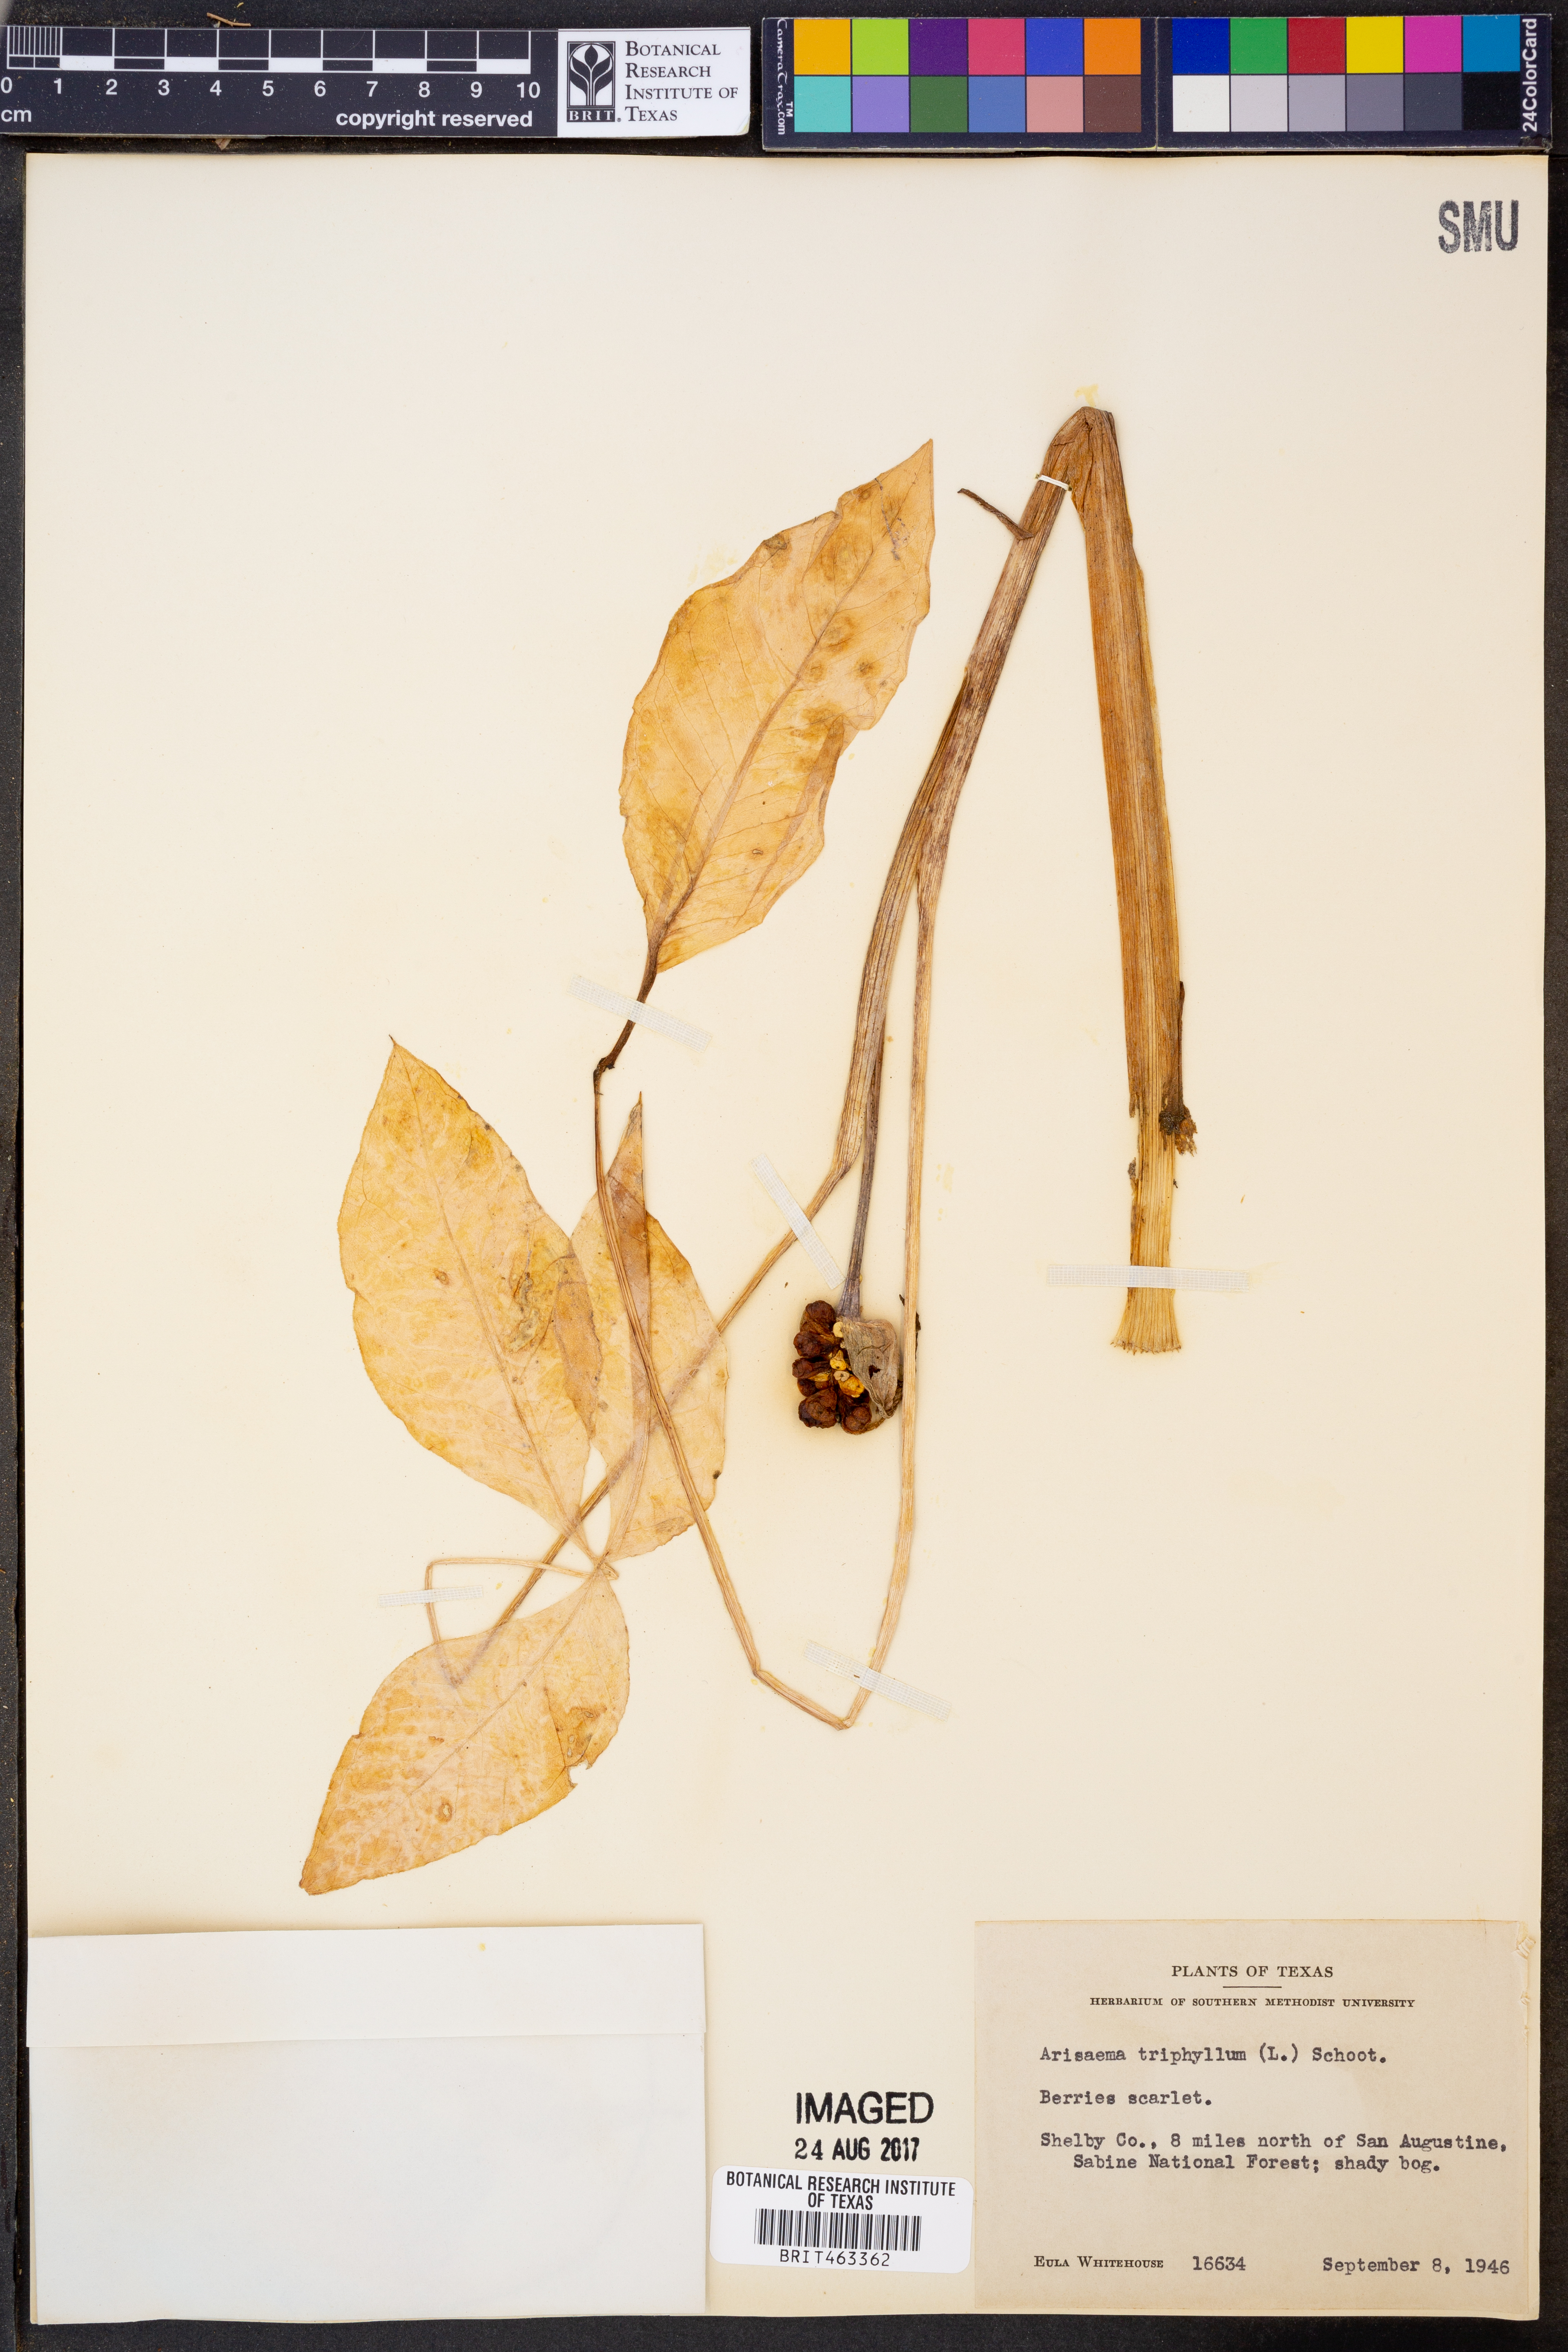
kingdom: Plantae
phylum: Tracheophyta
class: Liliopsida
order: Alismatales
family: Araceae
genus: Arisaema
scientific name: Arisaema triphyllum
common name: Jack-in-the-pulpit
